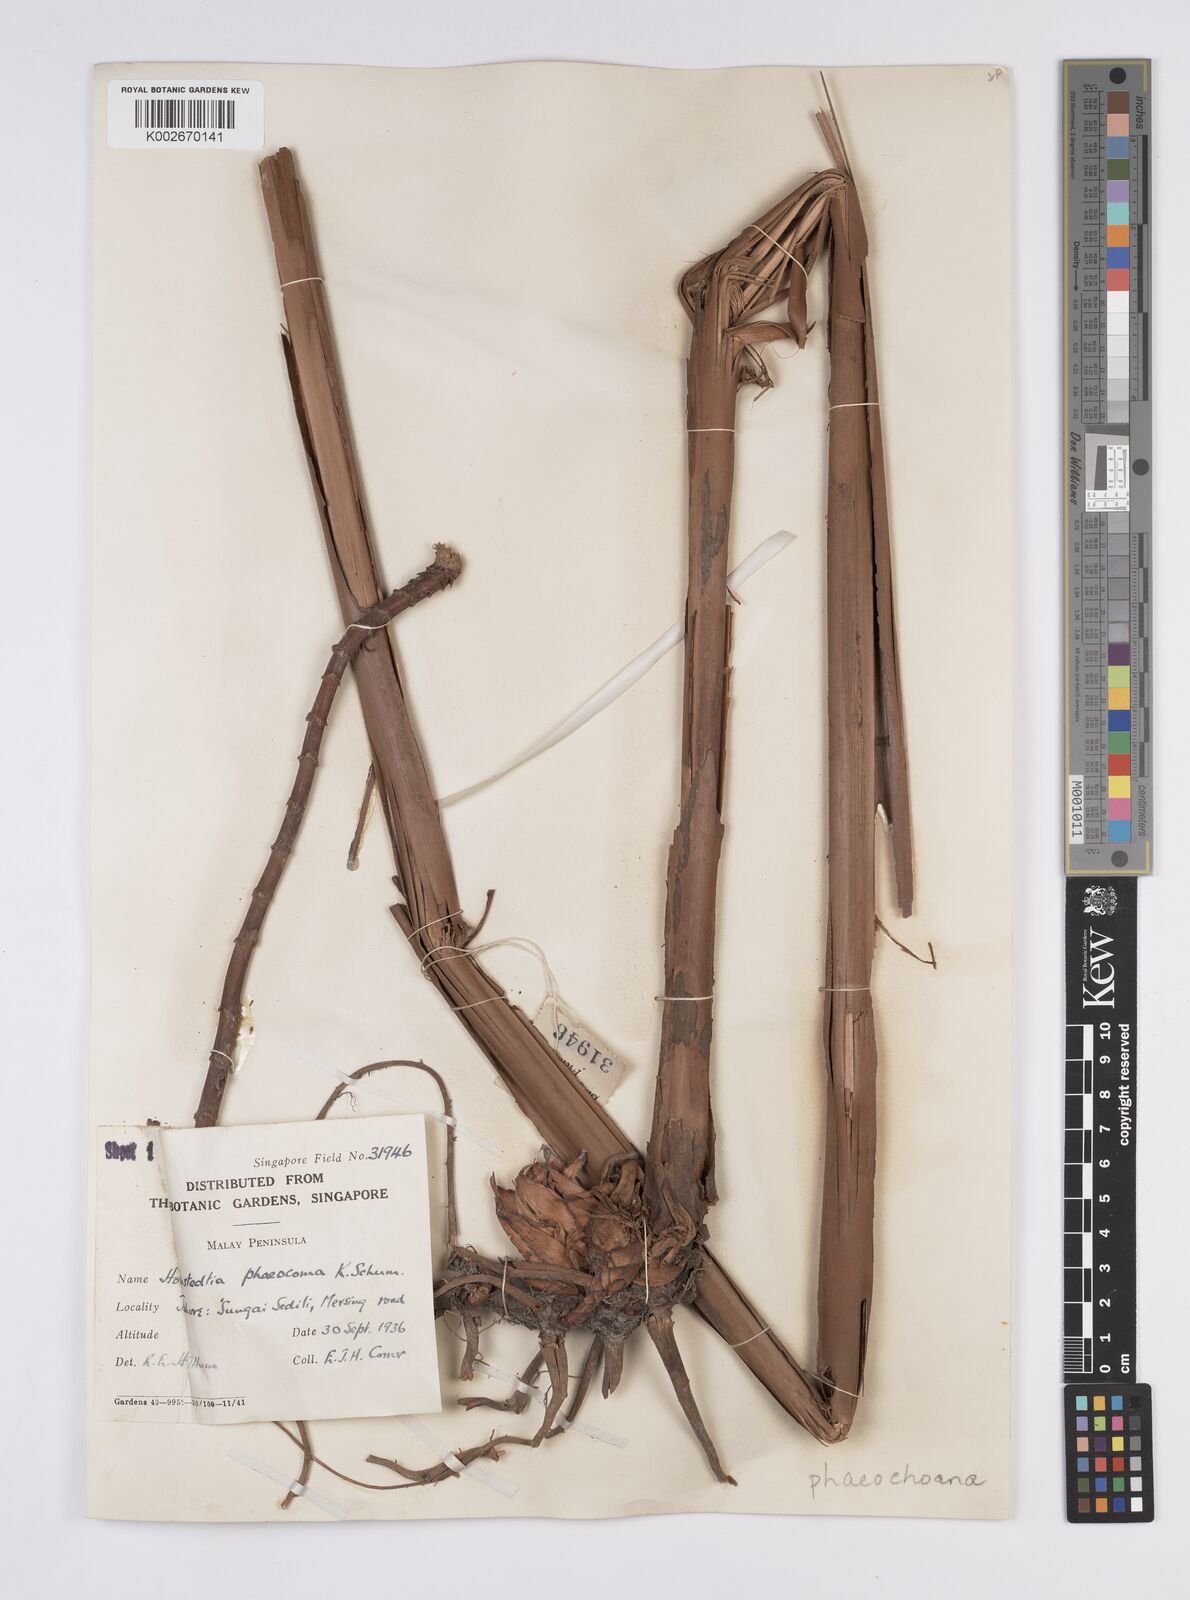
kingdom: Plantae
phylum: Tracheophyta
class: Liliopsida
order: Zingiberales
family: Zingiberaceae
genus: Hornstedtia
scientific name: Hornstedtia phaeochoana
